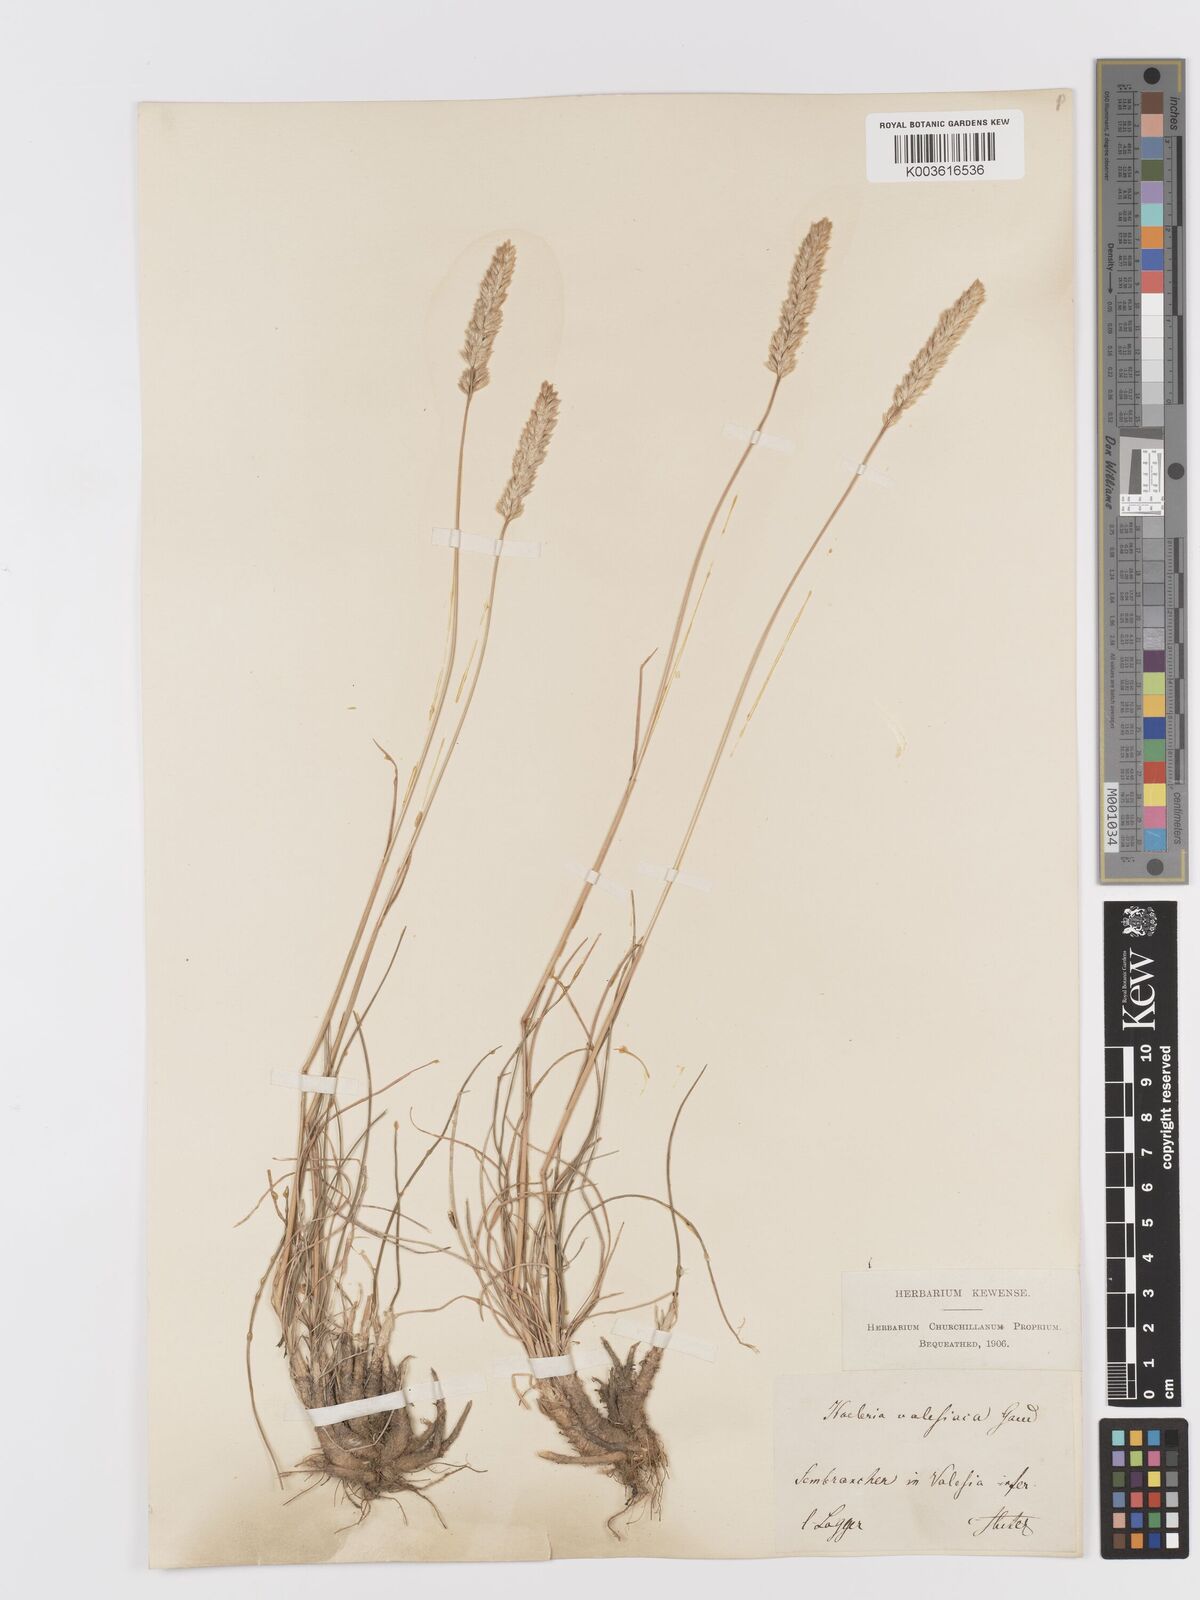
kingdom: Plantae
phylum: Tracheophyta
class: Liliopsida
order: Poales
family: Poaceae
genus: Koeleria
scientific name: Koeleria vallesiana
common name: Somerset hair-grass
